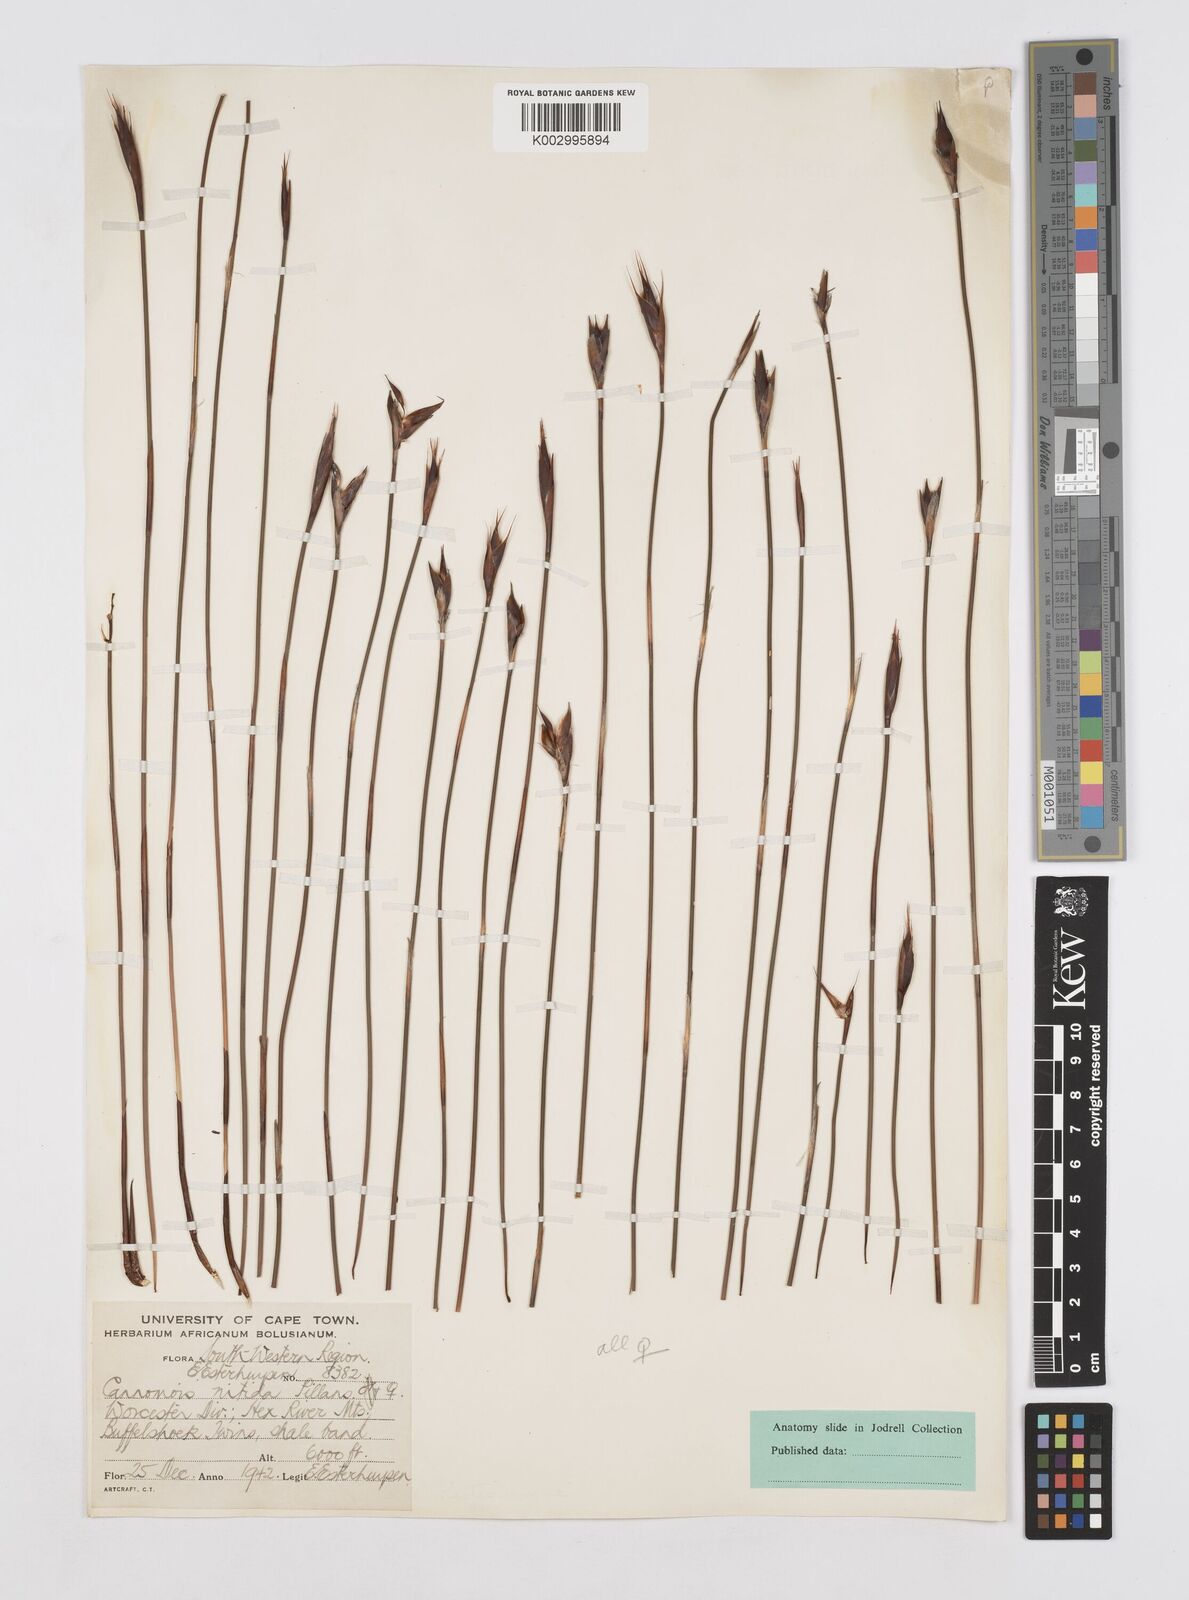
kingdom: Plantae
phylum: Tracheophyta
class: Liliopsida
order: Poales
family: Restionaceae
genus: Cannomois
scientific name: Cannomois nitida
